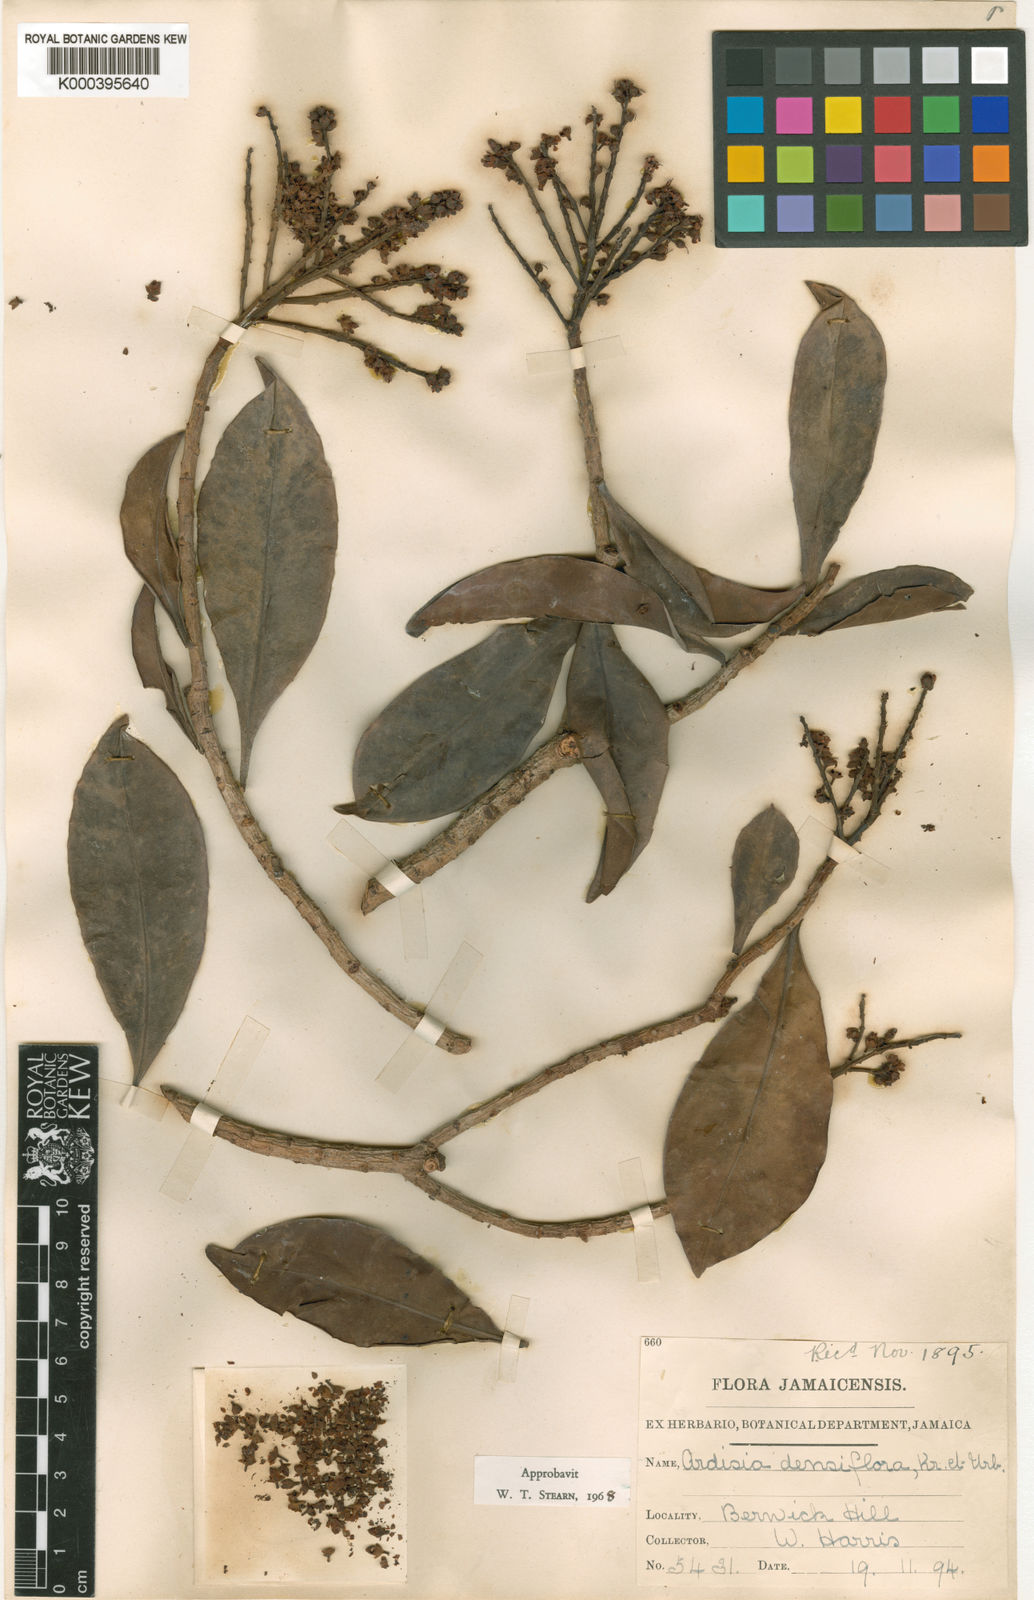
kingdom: Plantae
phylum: Tracheophyta
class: Magnoliopsida
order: Ericales
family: Primulaceae
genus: Ardisia
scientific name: Ardisia bracteosa
